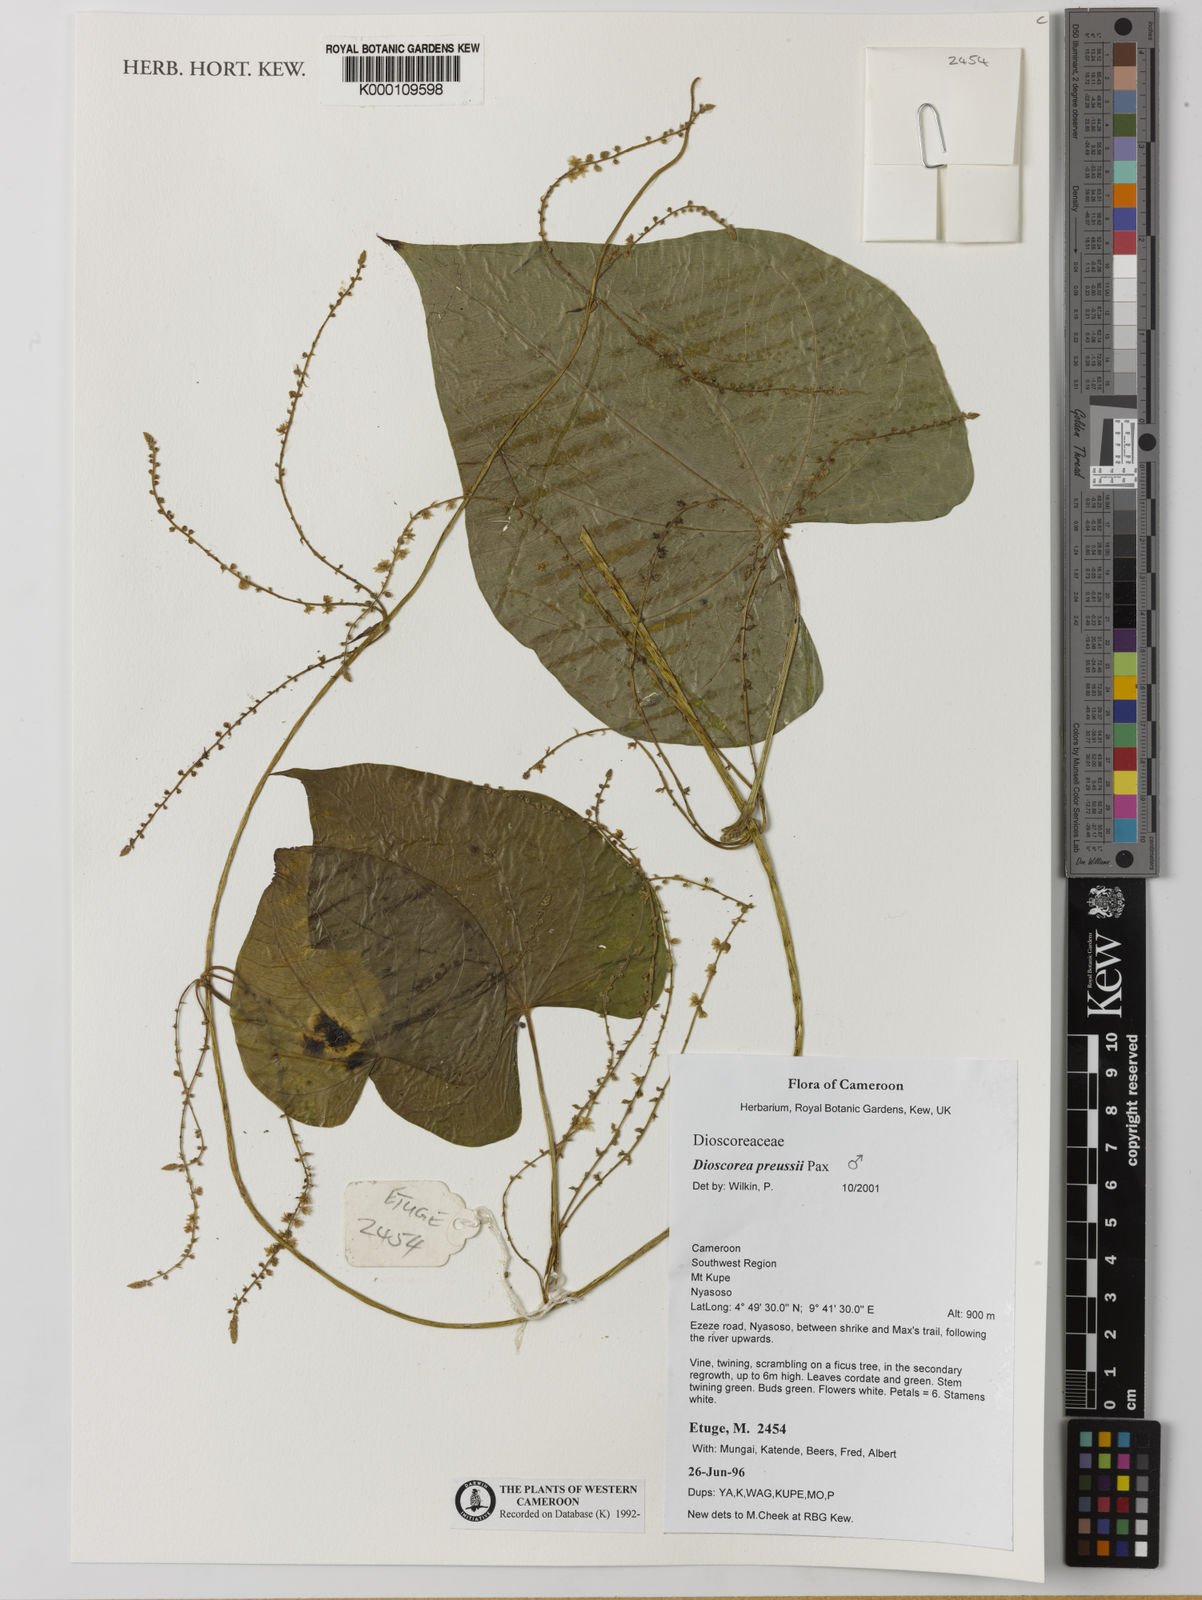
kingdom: Plantae
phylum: Tracheophyta
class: Liliopsida
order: Dioscoreales
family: Dioscoreaceae
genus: Dioscorea
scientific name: Dioscorea preussii
